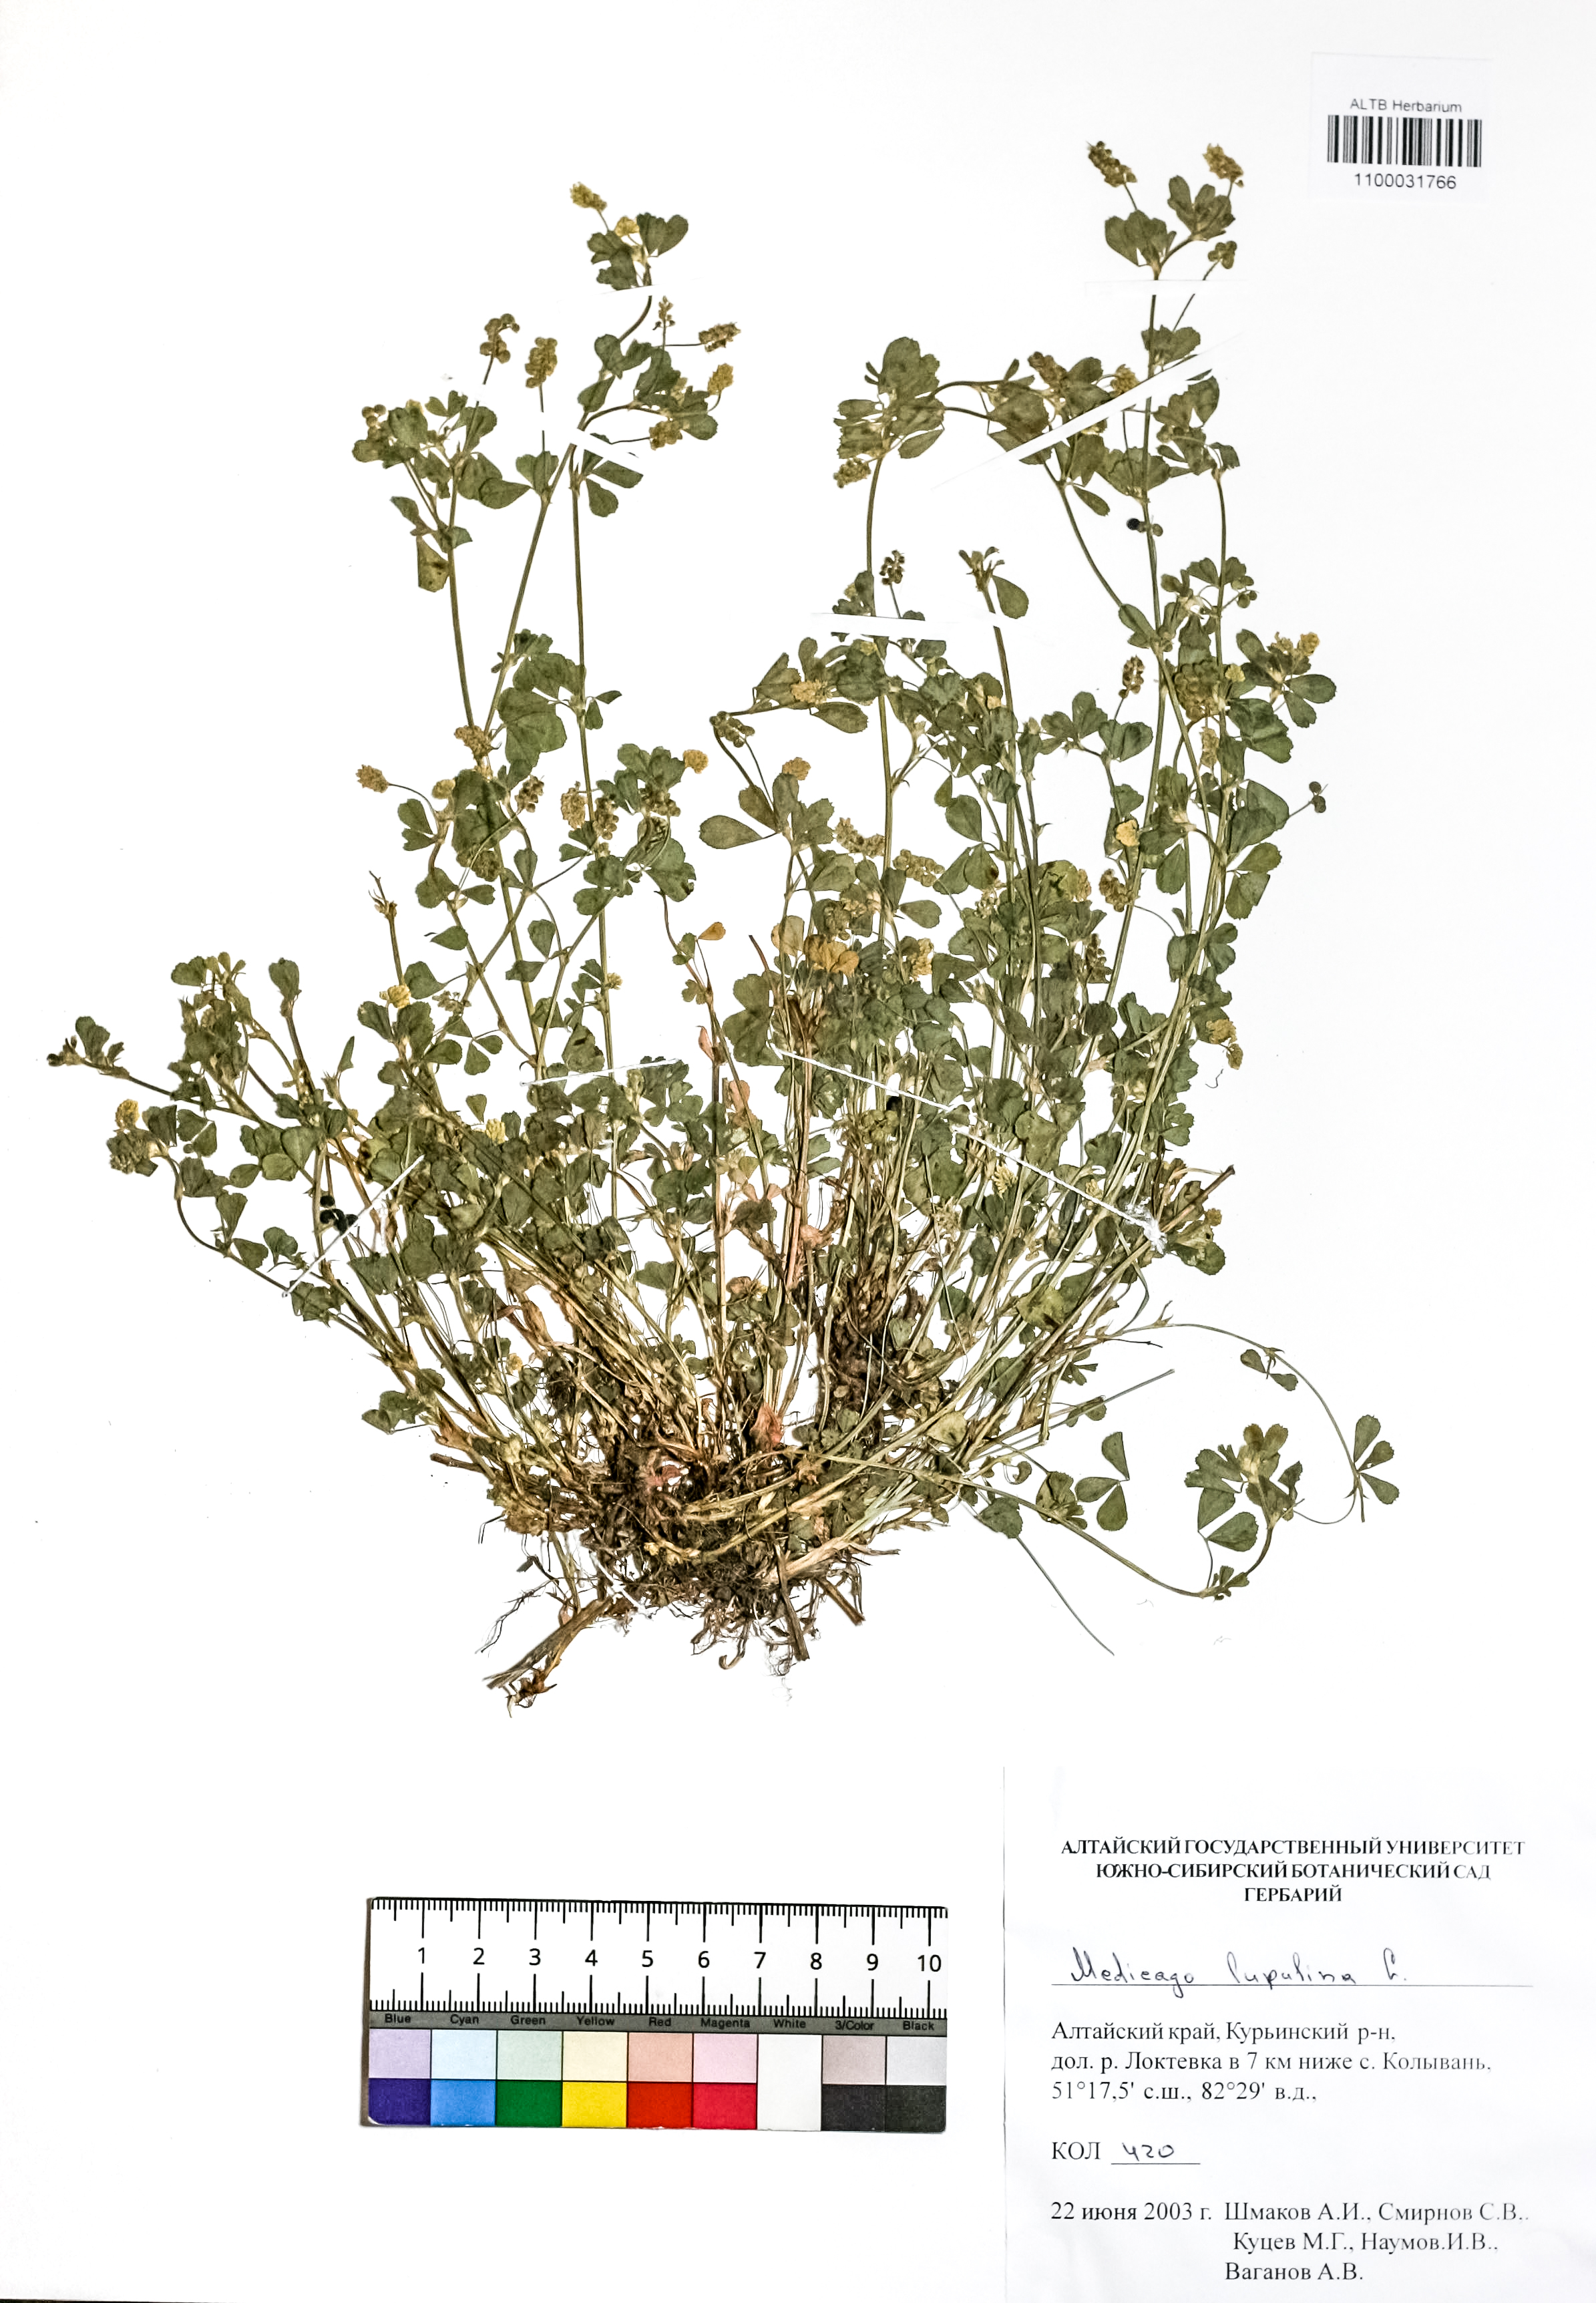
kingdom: Plantae
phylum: Tracheophyta
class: Magnoliopsida
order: Fabales
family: Fabaceae
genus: Medicago
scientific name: Medicago lupulina
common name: Black medick
